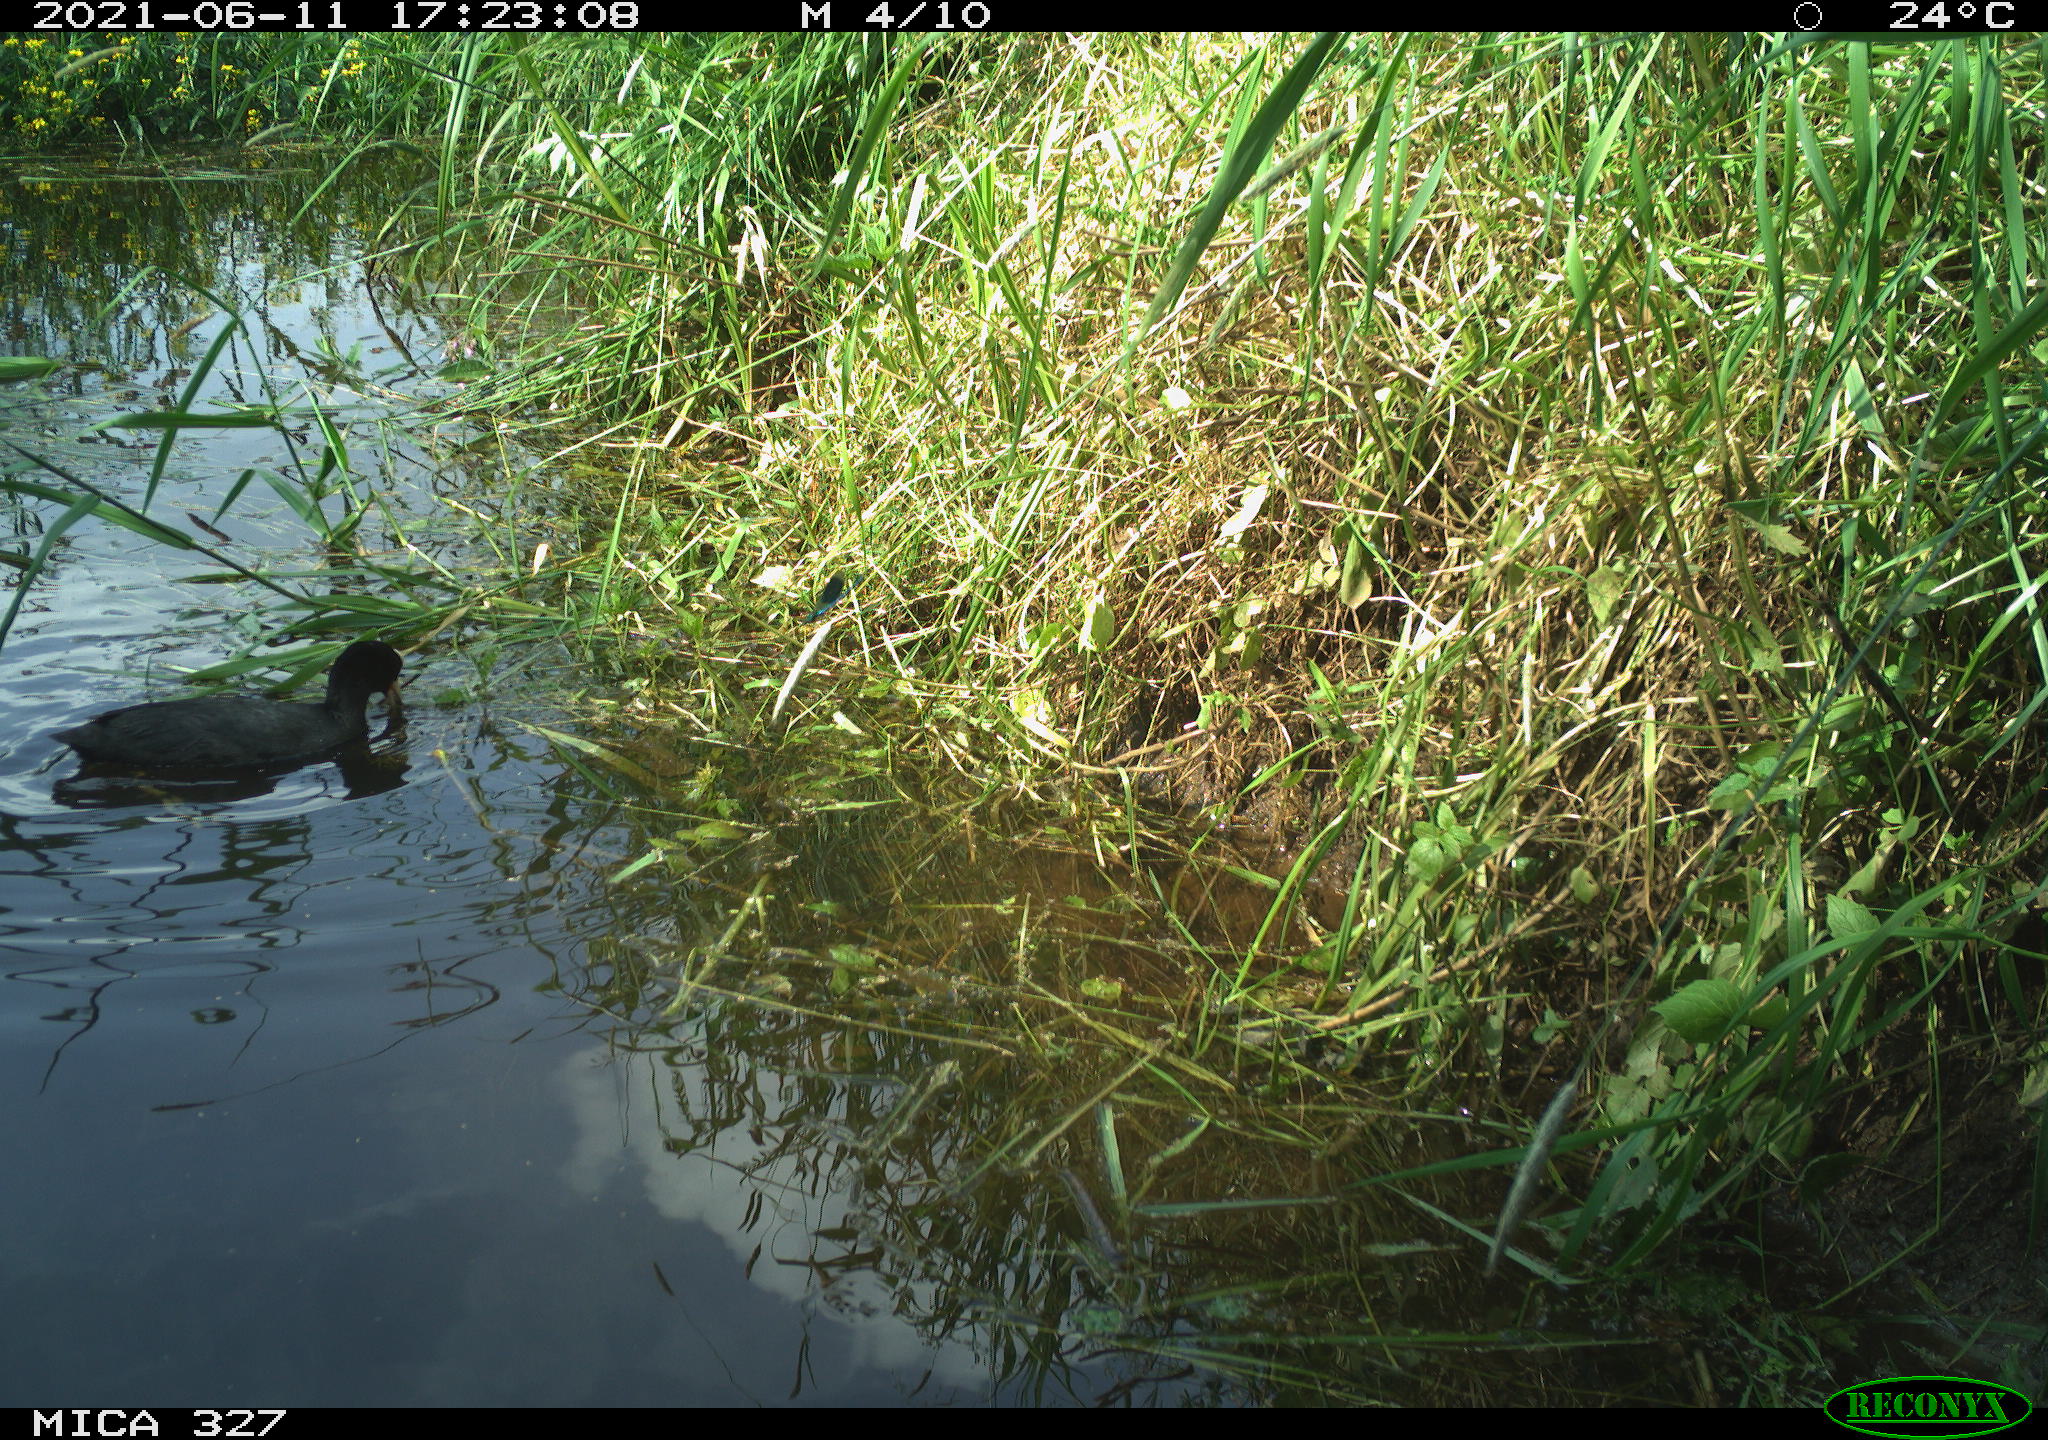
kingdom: Animalia
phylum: Chordata
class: Aves
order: Gruiformes
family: Rallidae
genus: Fulica
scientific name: Fulica atra
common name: Eurasian coot
